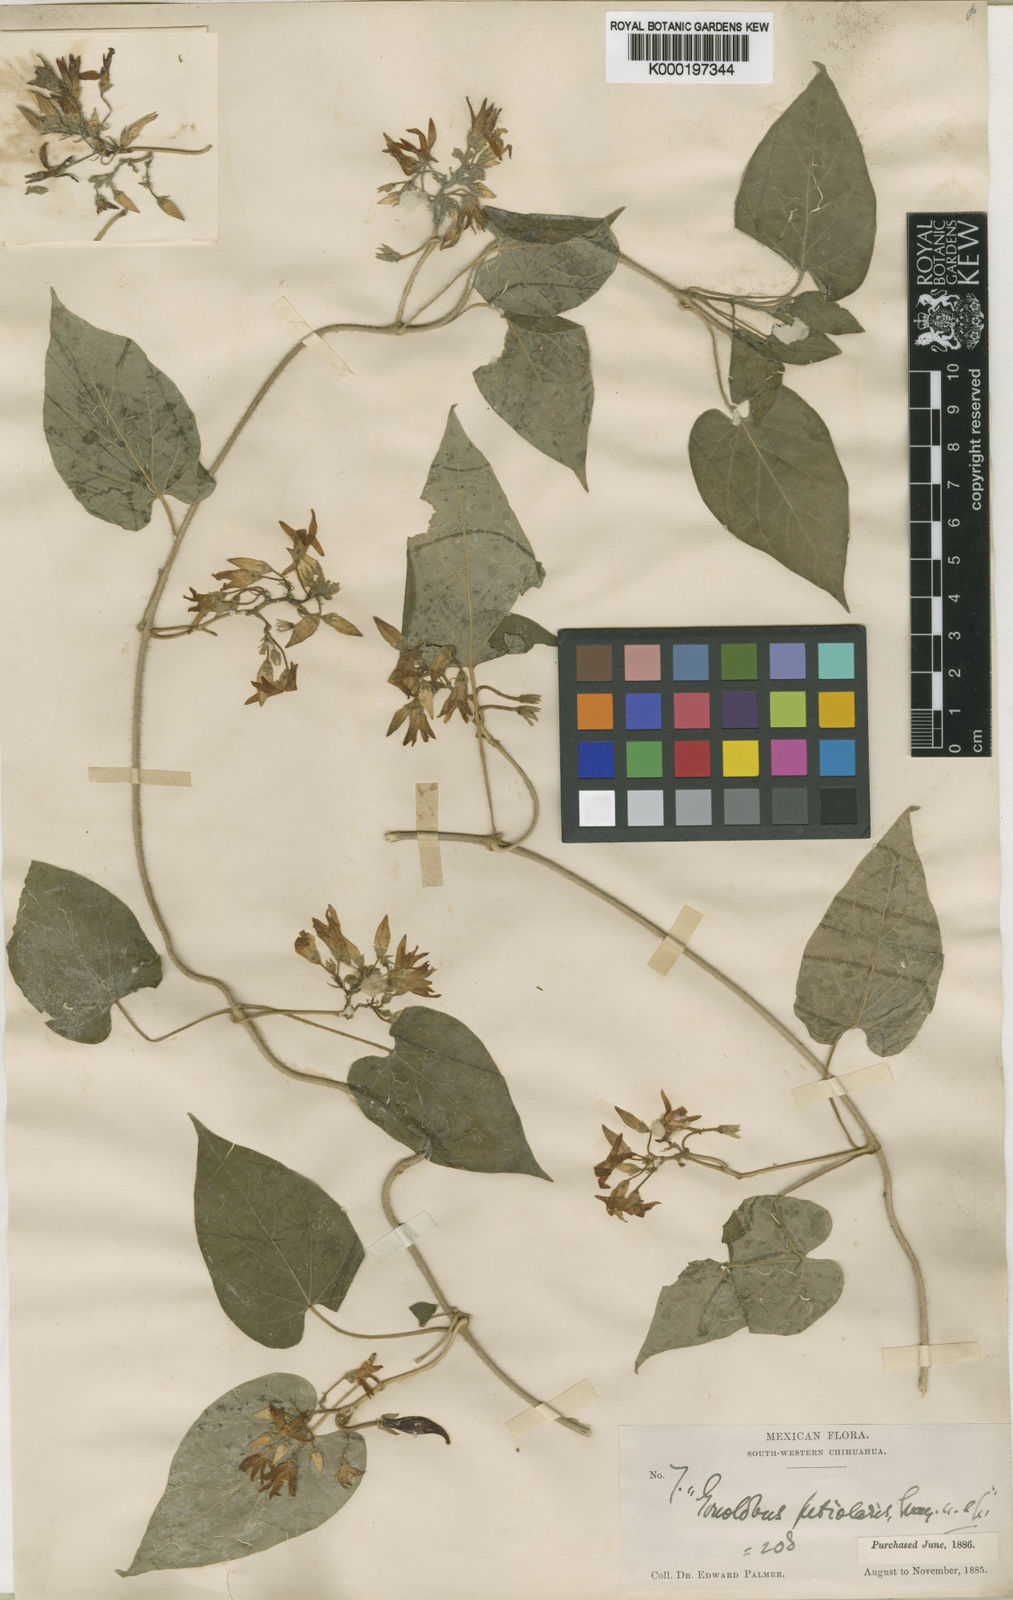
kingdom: Plantae
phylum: Tracheophyta
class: Magnoliopsida
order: Gentianales
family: Apocynaceae
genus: Matelea
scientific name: Matelea petiolaris
